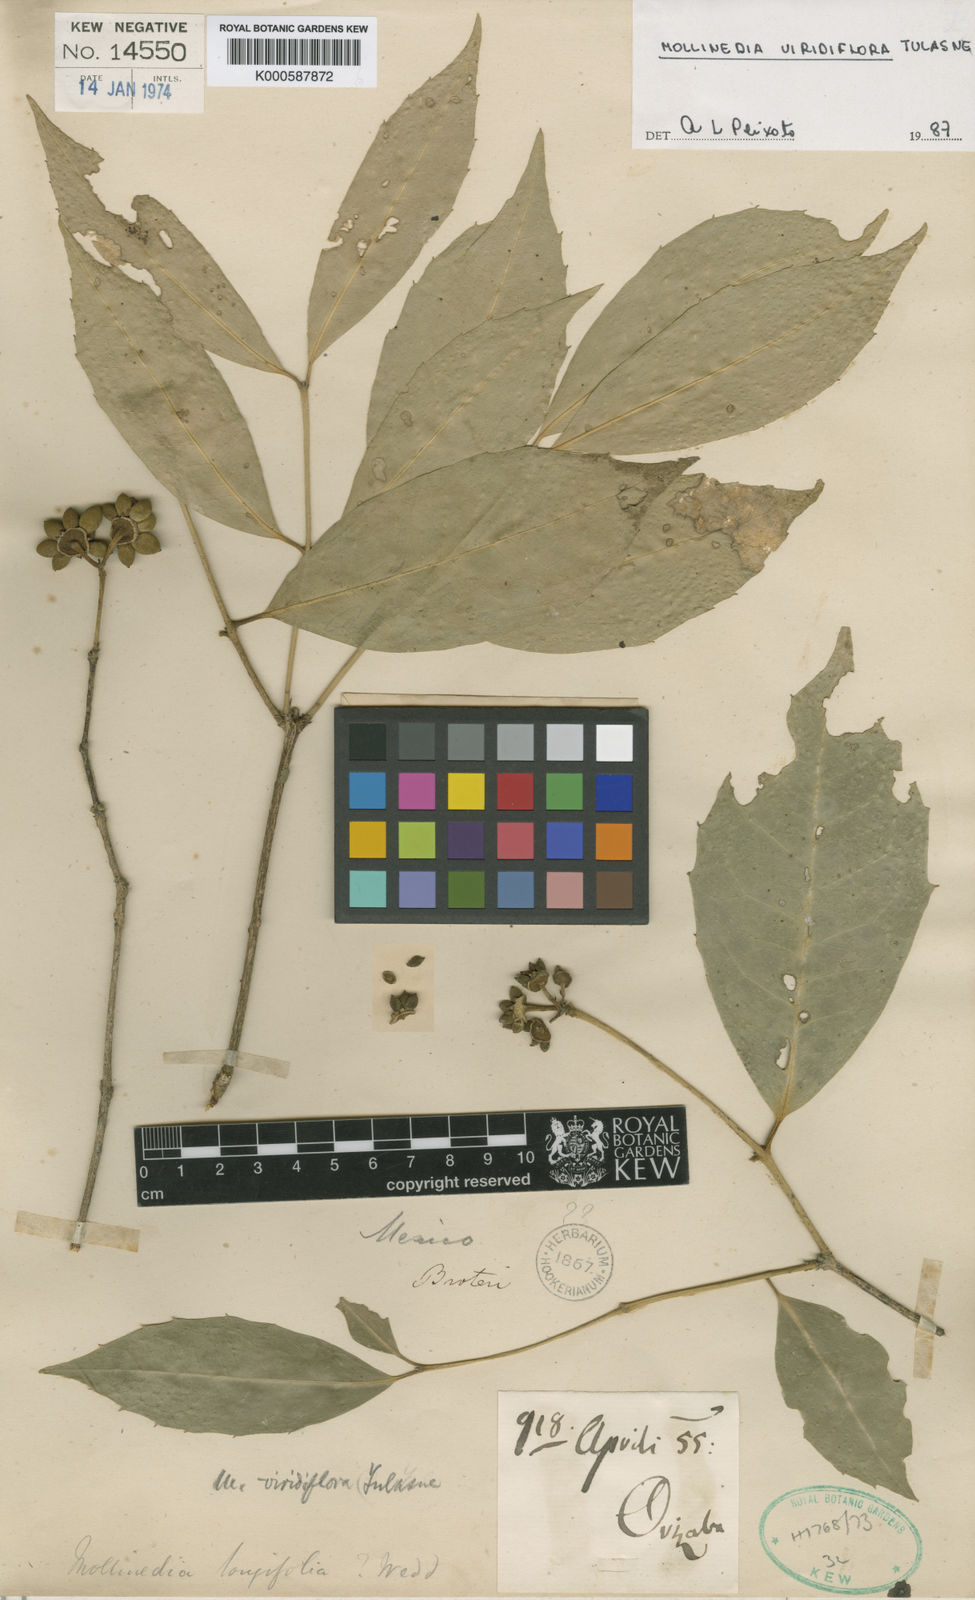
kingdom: Plantae
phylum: Tracheophyta
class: Magnoliopsida
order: Laurales
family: Monimiaceae
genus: Mollinedia
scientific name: Mollinedia viridiflora
